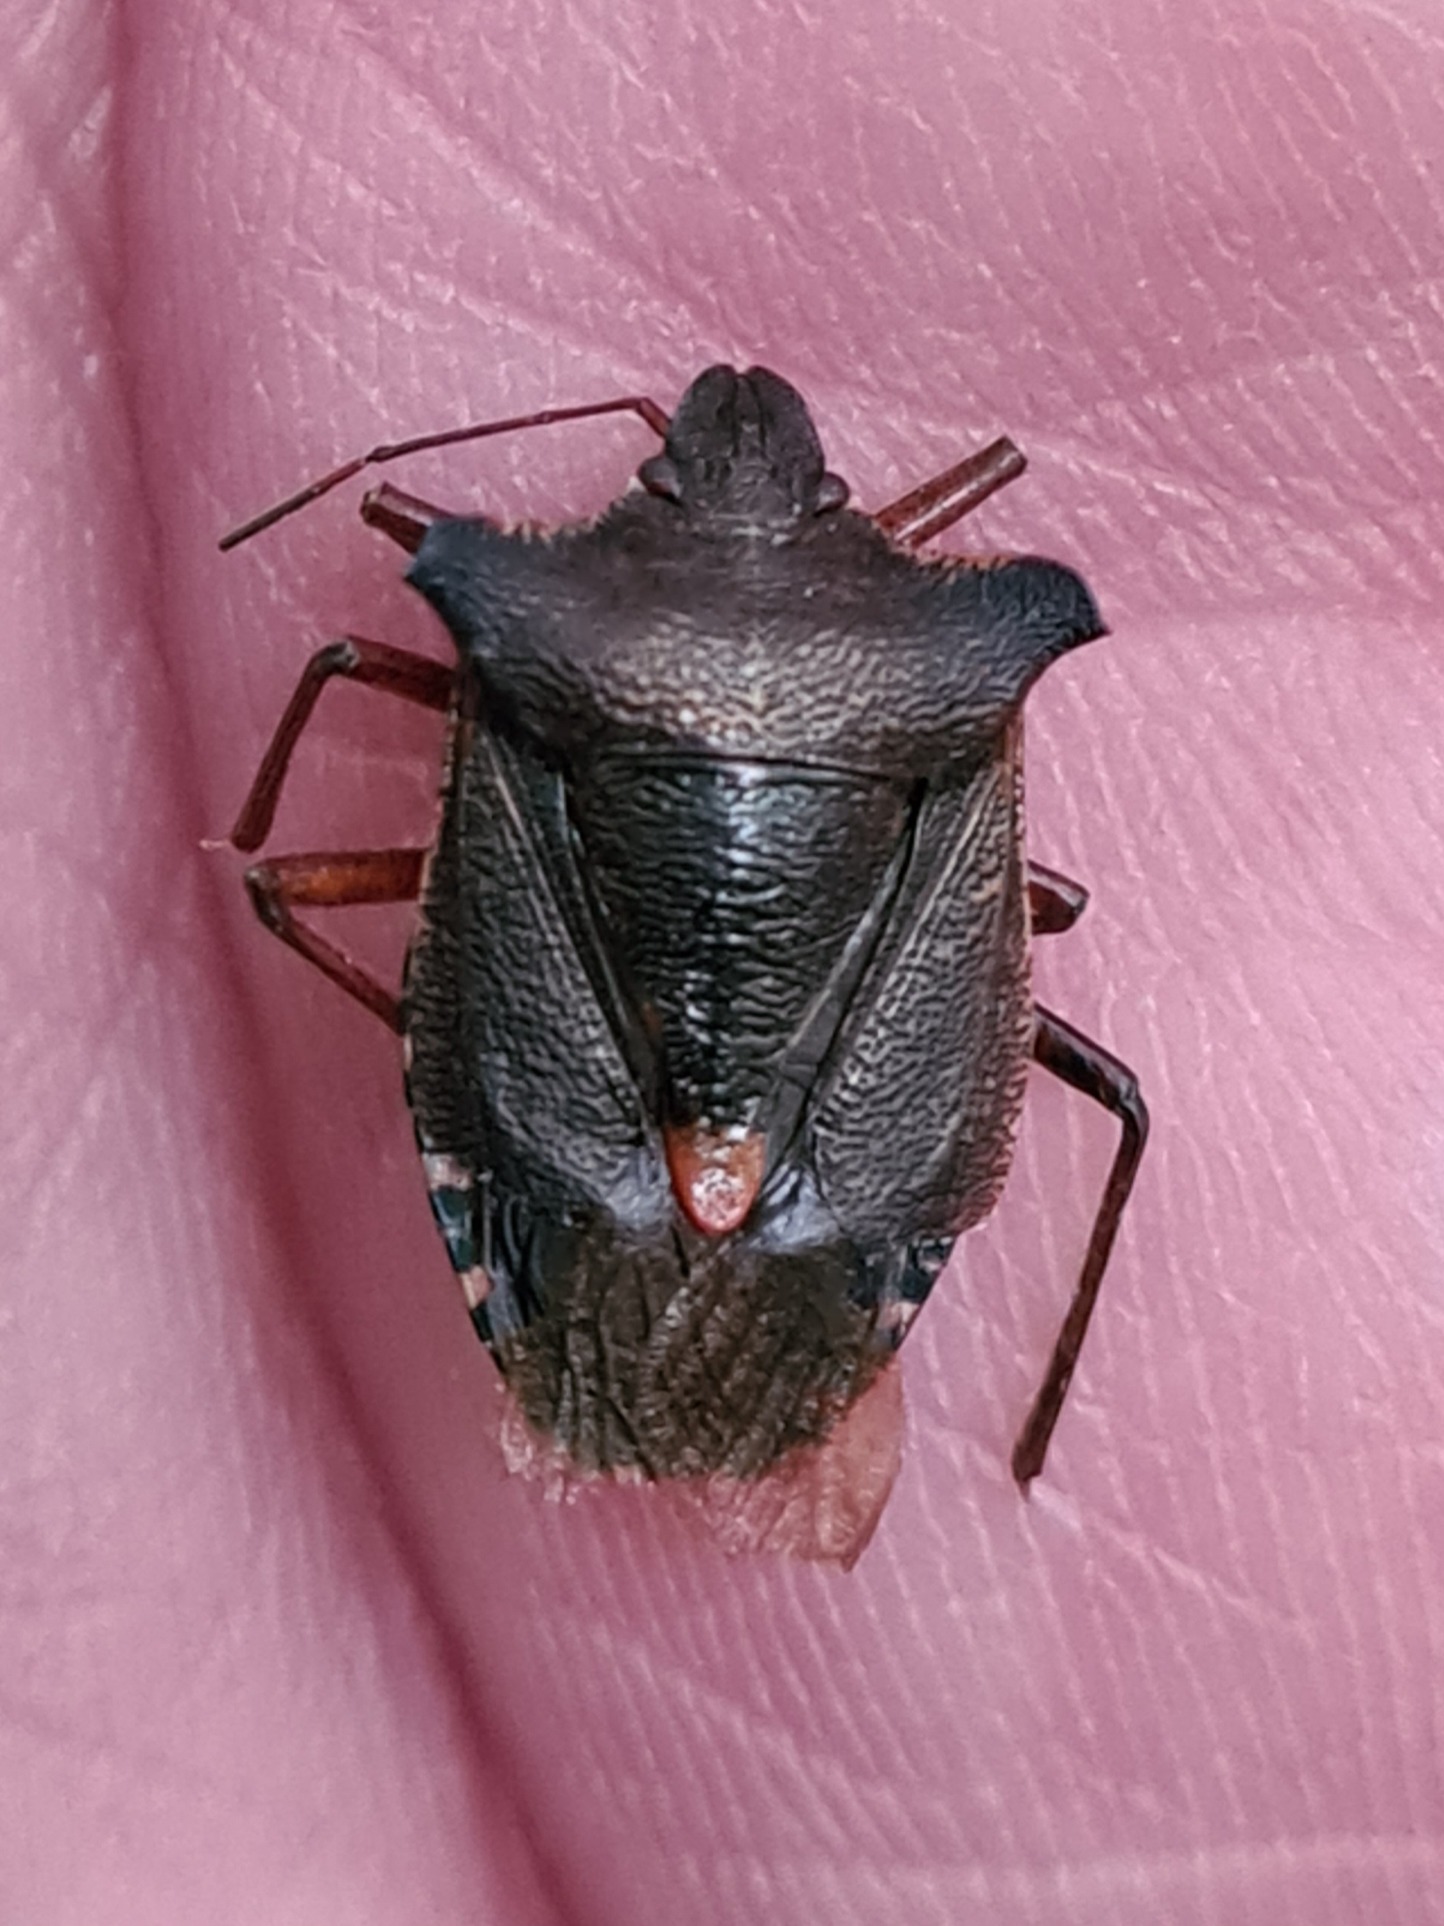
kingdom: Animalia
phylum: Arthropoda
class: Insecta
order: Hemiptera
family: Pentatomidae
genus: Pentatoma
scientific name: Pentatoma rufipes
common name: Rødbenet bredtæge
